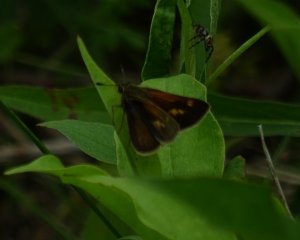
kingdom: Animalia
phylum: Arthropoda
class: Insecta
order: Lepidoptera
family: Hesperiidae
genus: Polites
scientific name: Polites themistocles
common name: Tawny-edged Skipper
